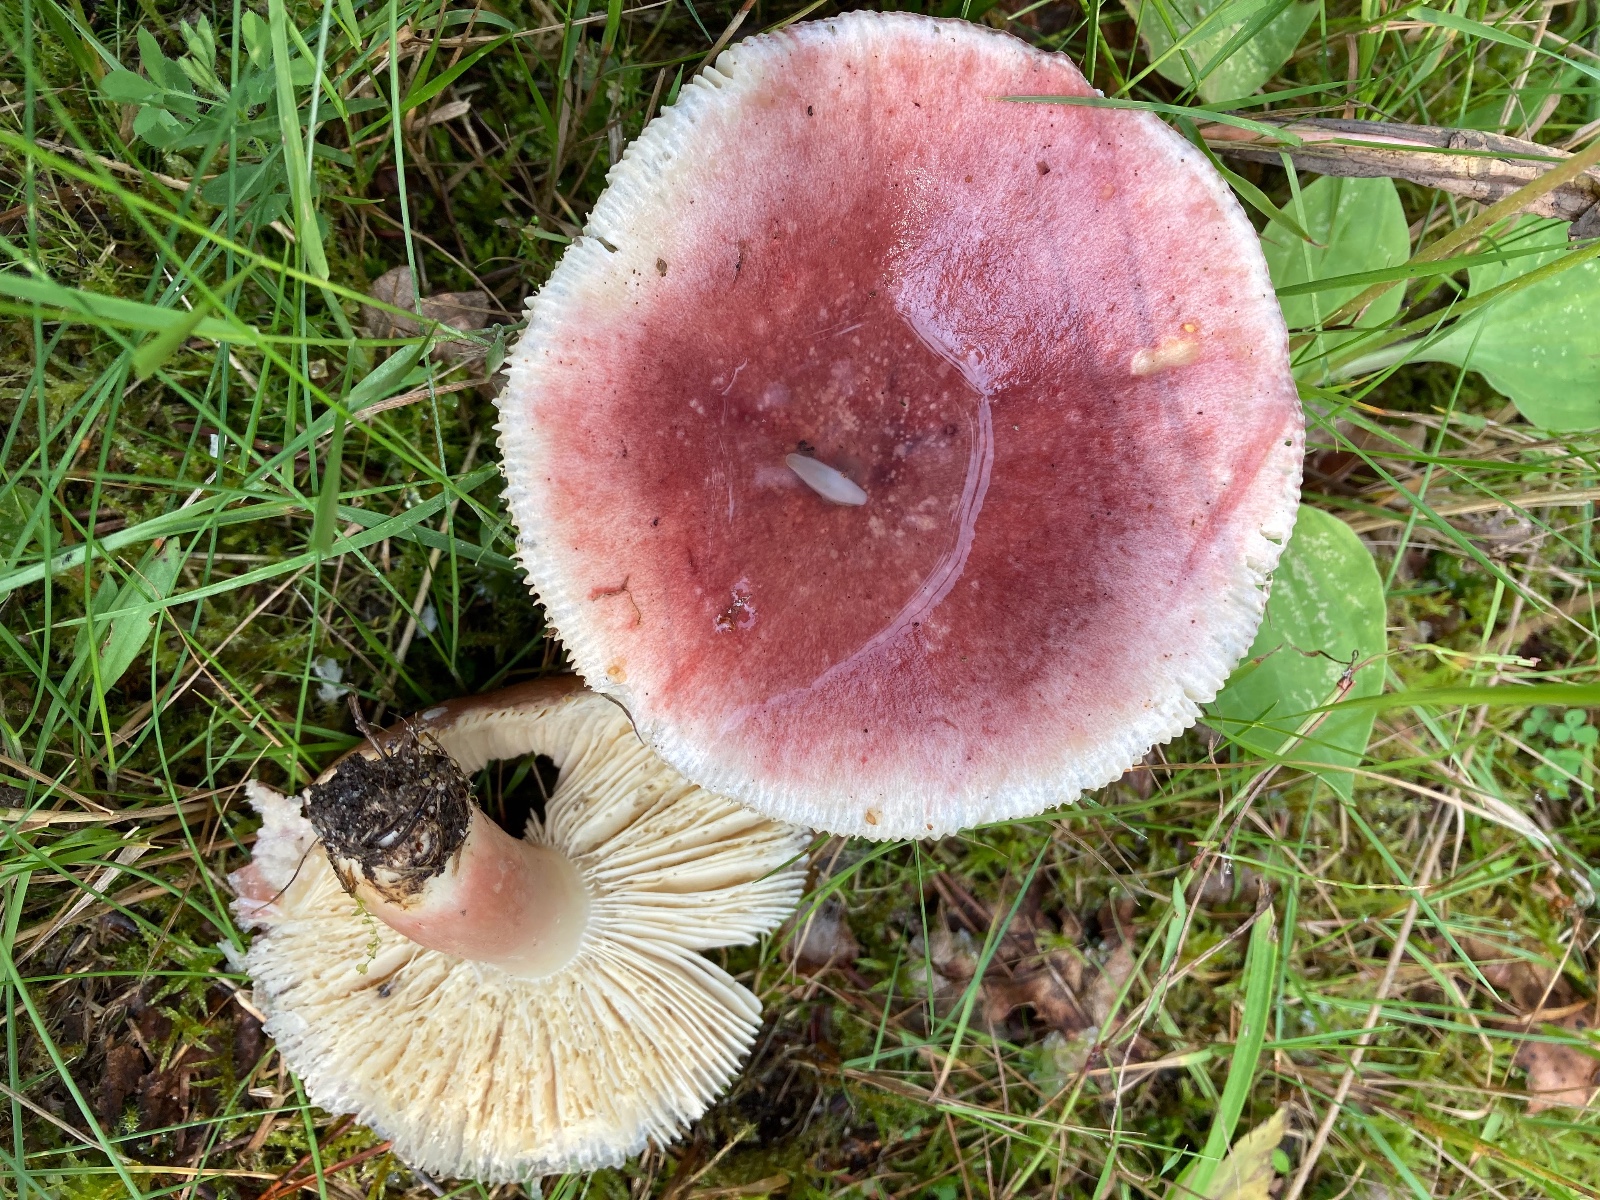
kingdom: Fungi
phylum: Basidiomycota
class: Agaricomycetes
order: Russulales
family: Russulaceae
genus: Russula
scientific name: Russula queletii
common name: Quélets skørhat
